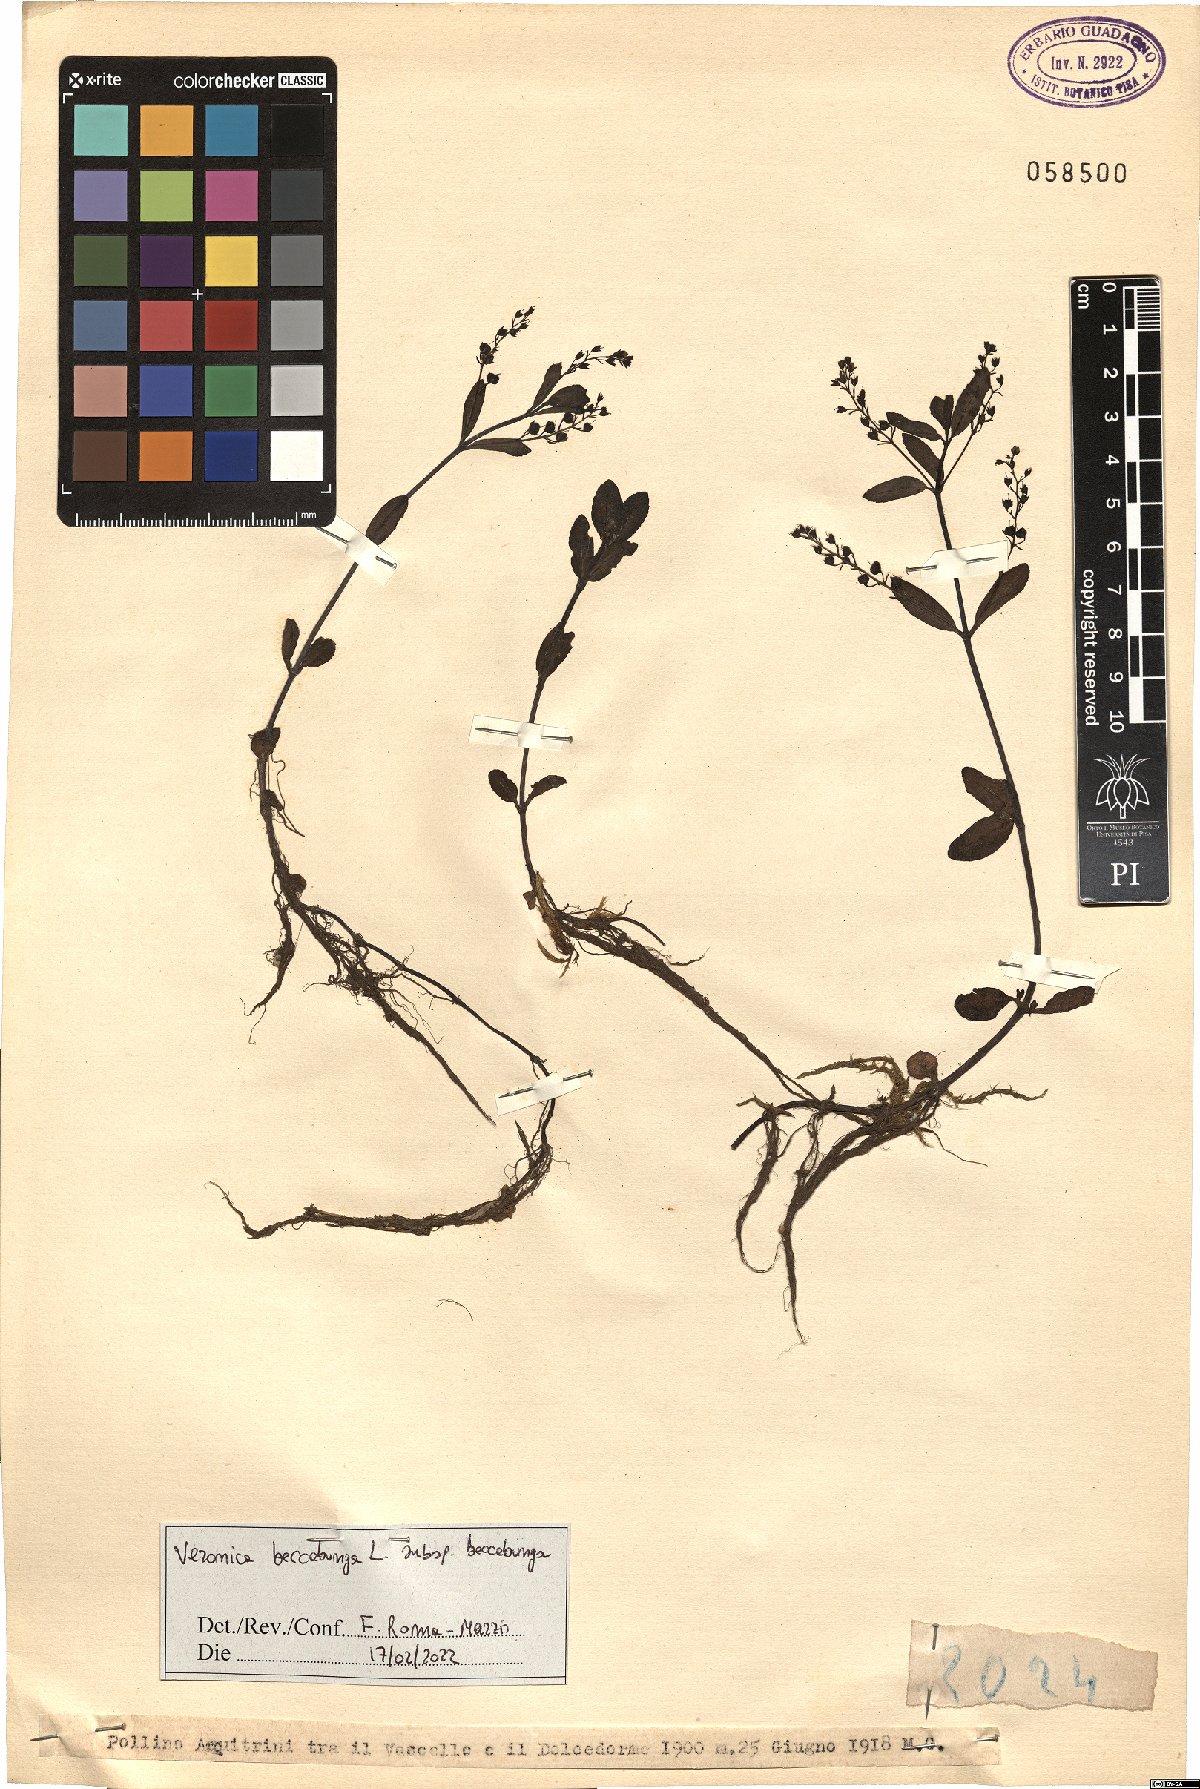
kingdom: Plantae
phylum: Tracheophyta
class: Magnoliopsida
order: Lamiales
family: Plantaginaceae
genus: Veronica
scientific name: Veronica beccabunga
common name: Brooklime
